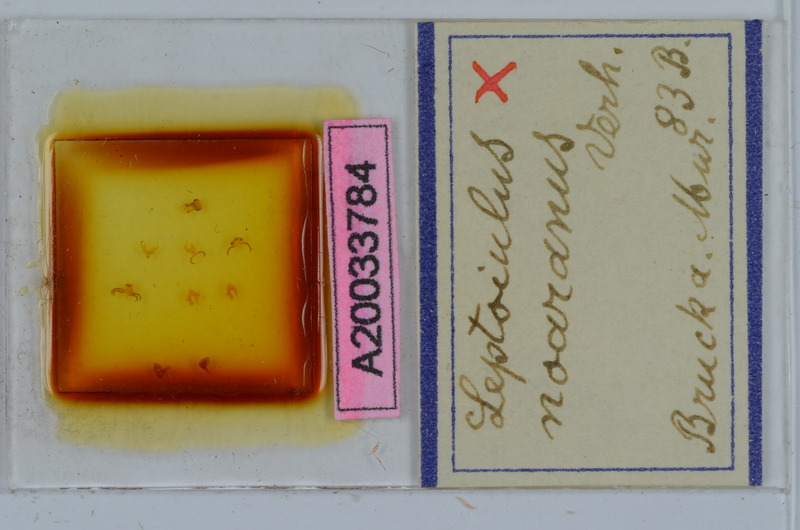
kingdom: Animalia
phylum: Arthropoda
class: Diplopoda
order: Julida
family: Julidae
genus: Leptoiulus
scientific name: Leptoiulus proximus
